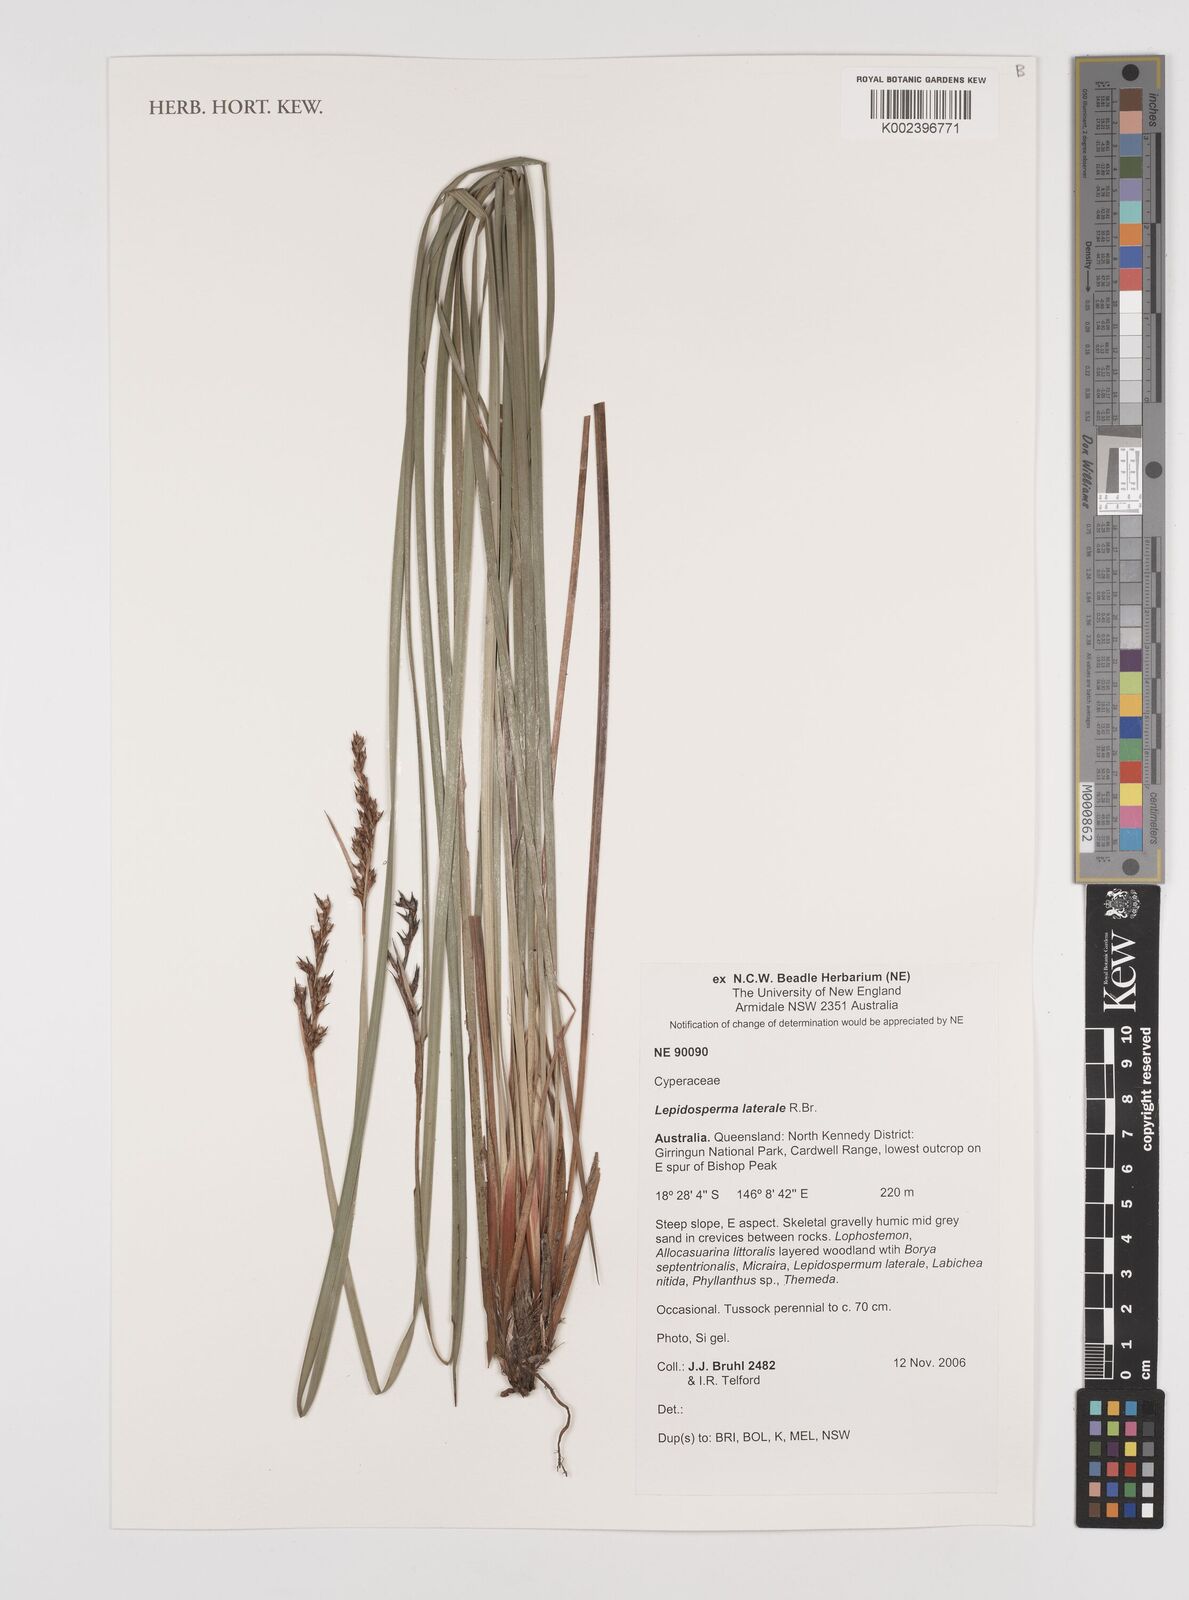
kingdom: Plantae
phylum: Tracheophyta
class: Liliopsida
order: Poales
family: Cyperaceae
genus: Lepidosperma
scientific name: Lepidosperma laterale
